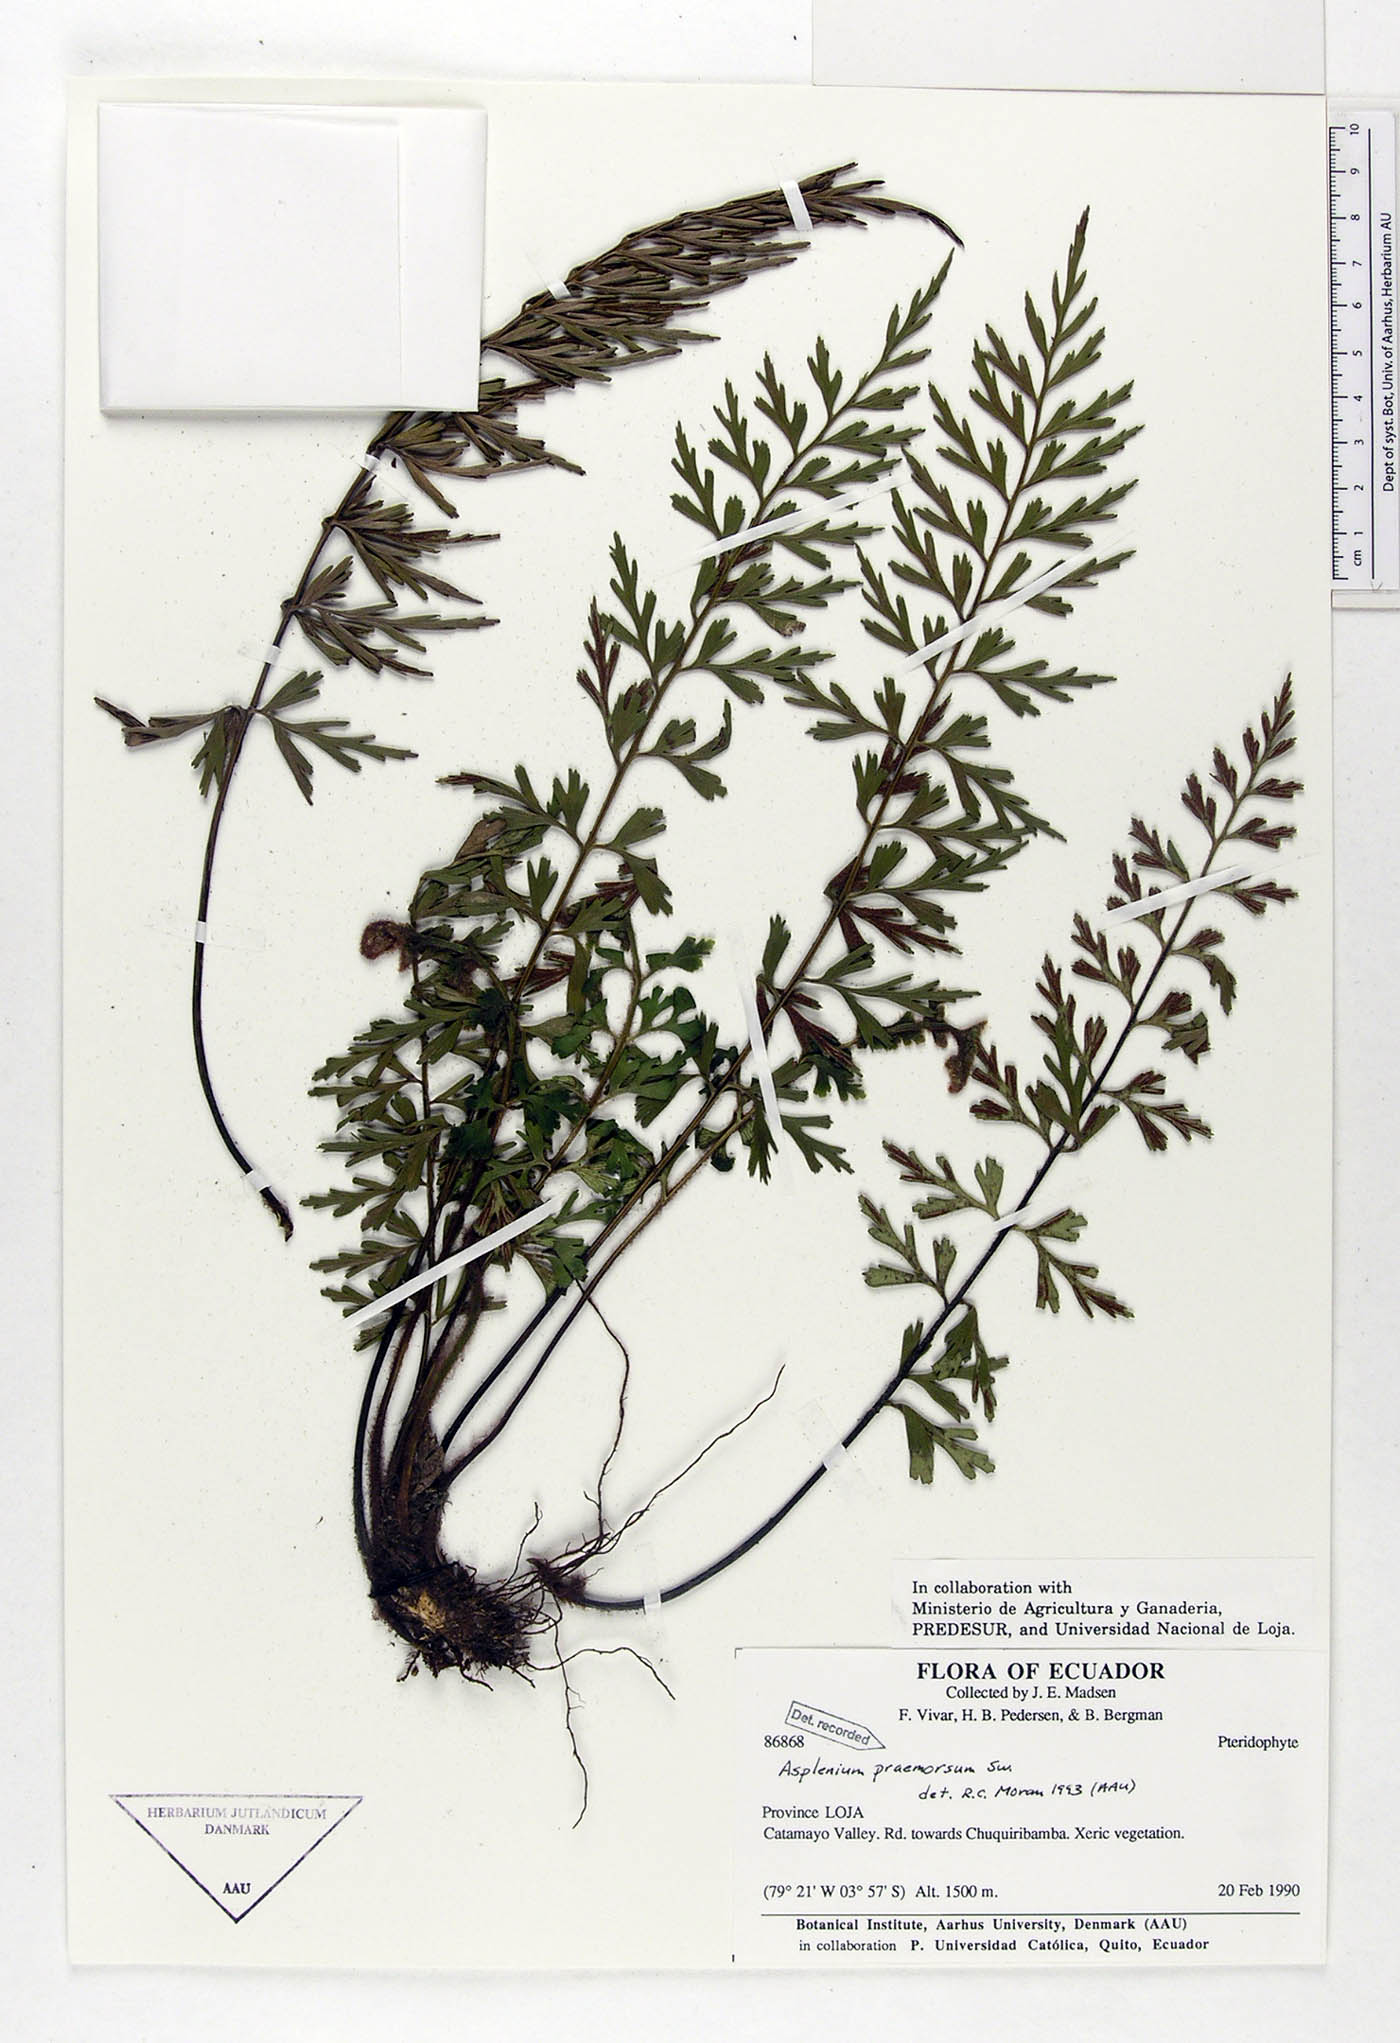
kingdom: Plantae
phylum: Tracheophyta
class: Polypodiopsida
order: Polypodiales
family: Aspleniaceae
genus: Asplenium
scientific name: Asplenium praemorsum
